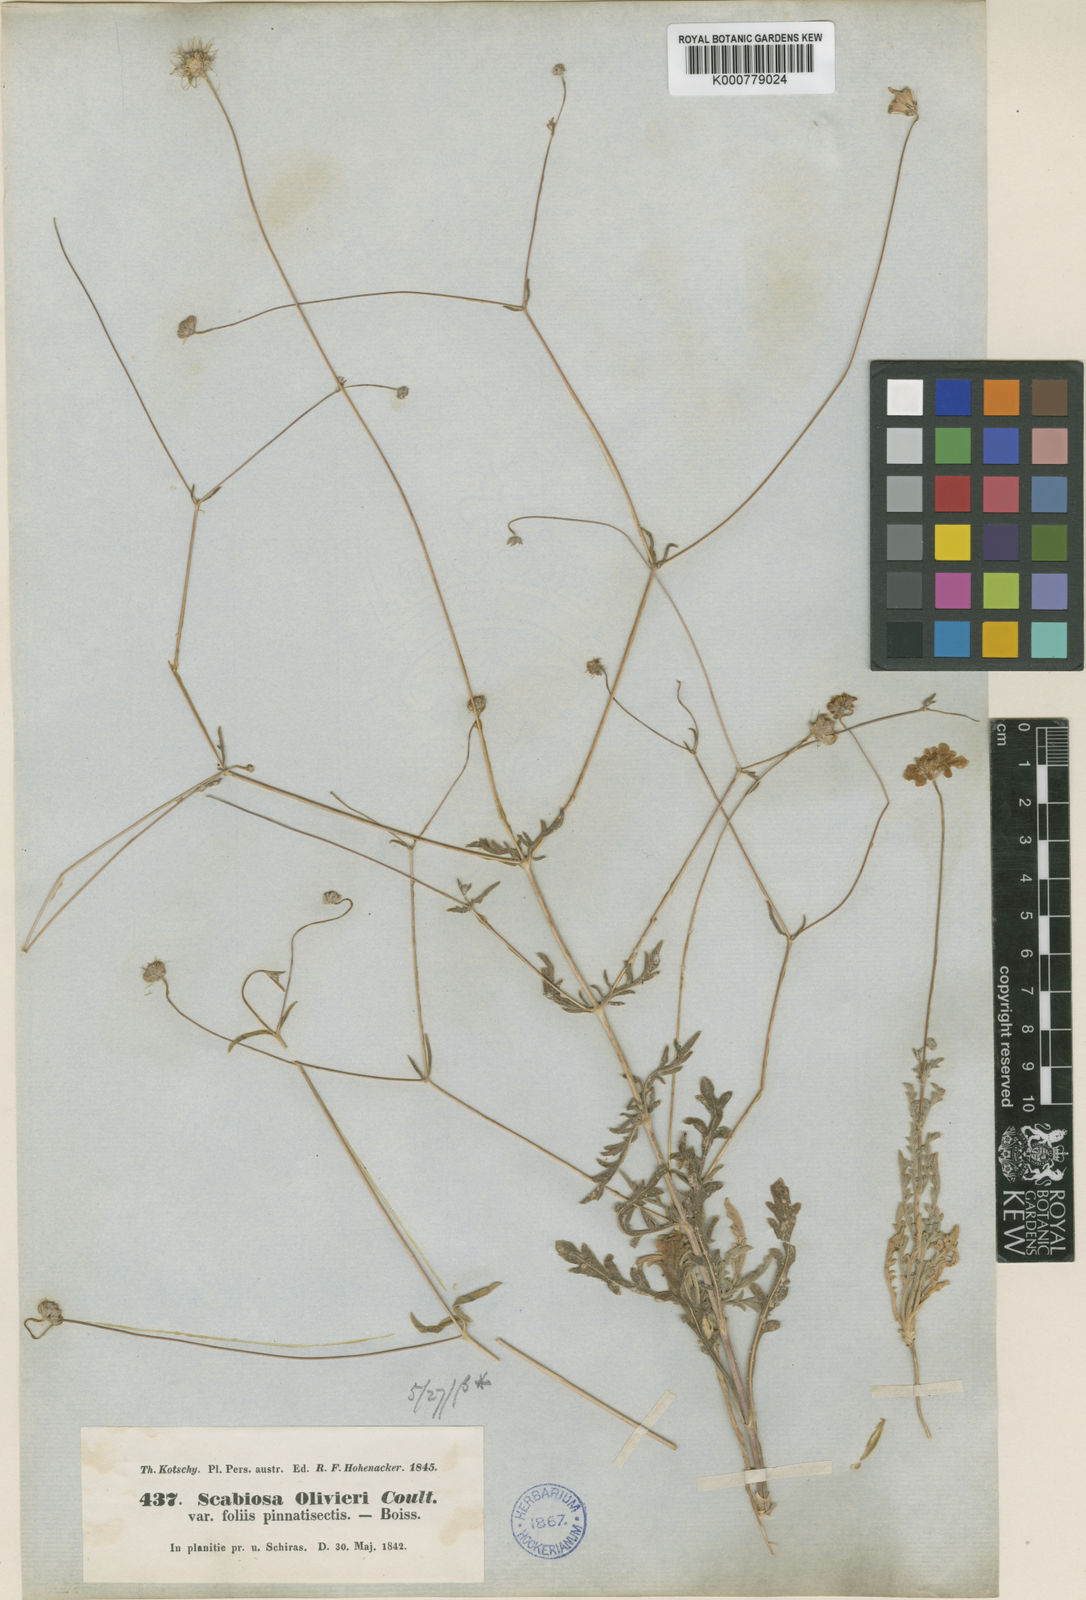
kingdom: Plantae
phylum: Tracheophyta
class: Magnoliopsida
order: Dipsacales
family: Caprifoliaceae
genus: Lomelosia
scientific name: Lomelosia olivieri
